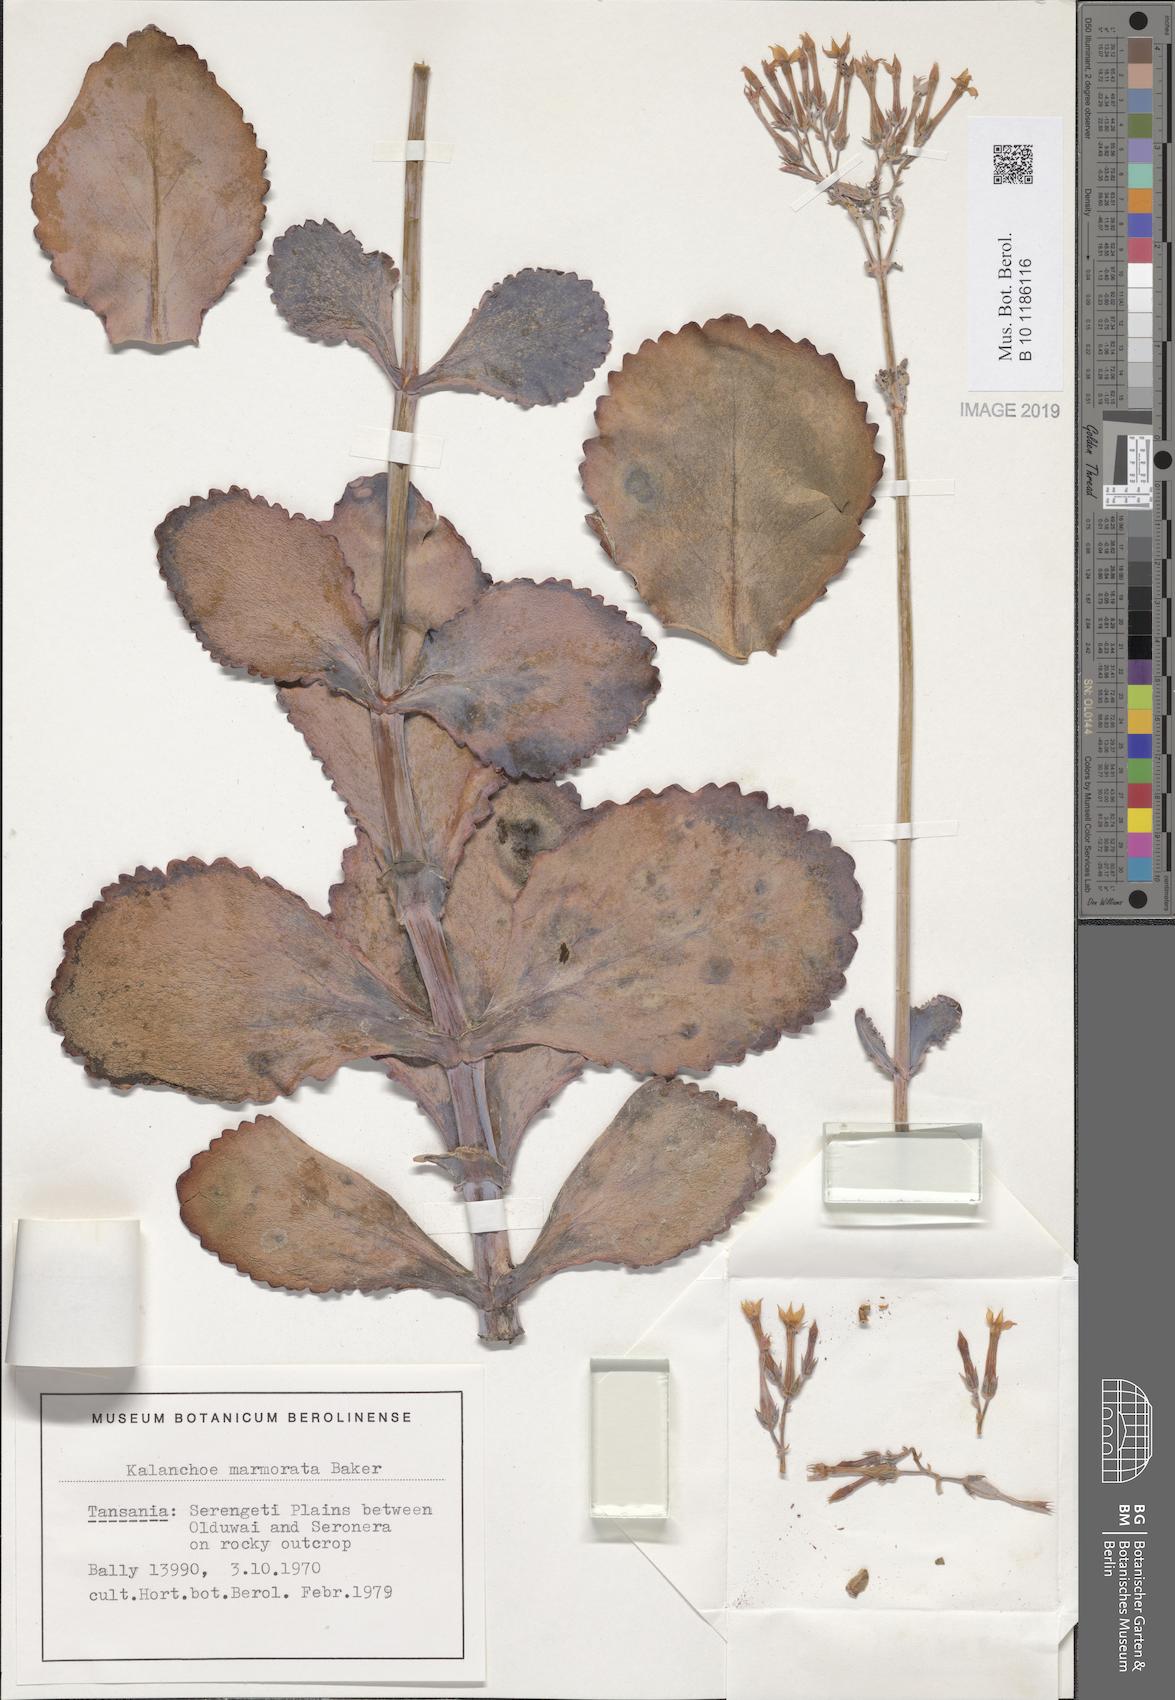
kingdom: Plantae
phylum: Tracheophyta
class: Magnoliopsida
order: Saxifragales
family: Crassulaceae
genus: Kalanchoe
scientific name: Kalanchoe marmorata
